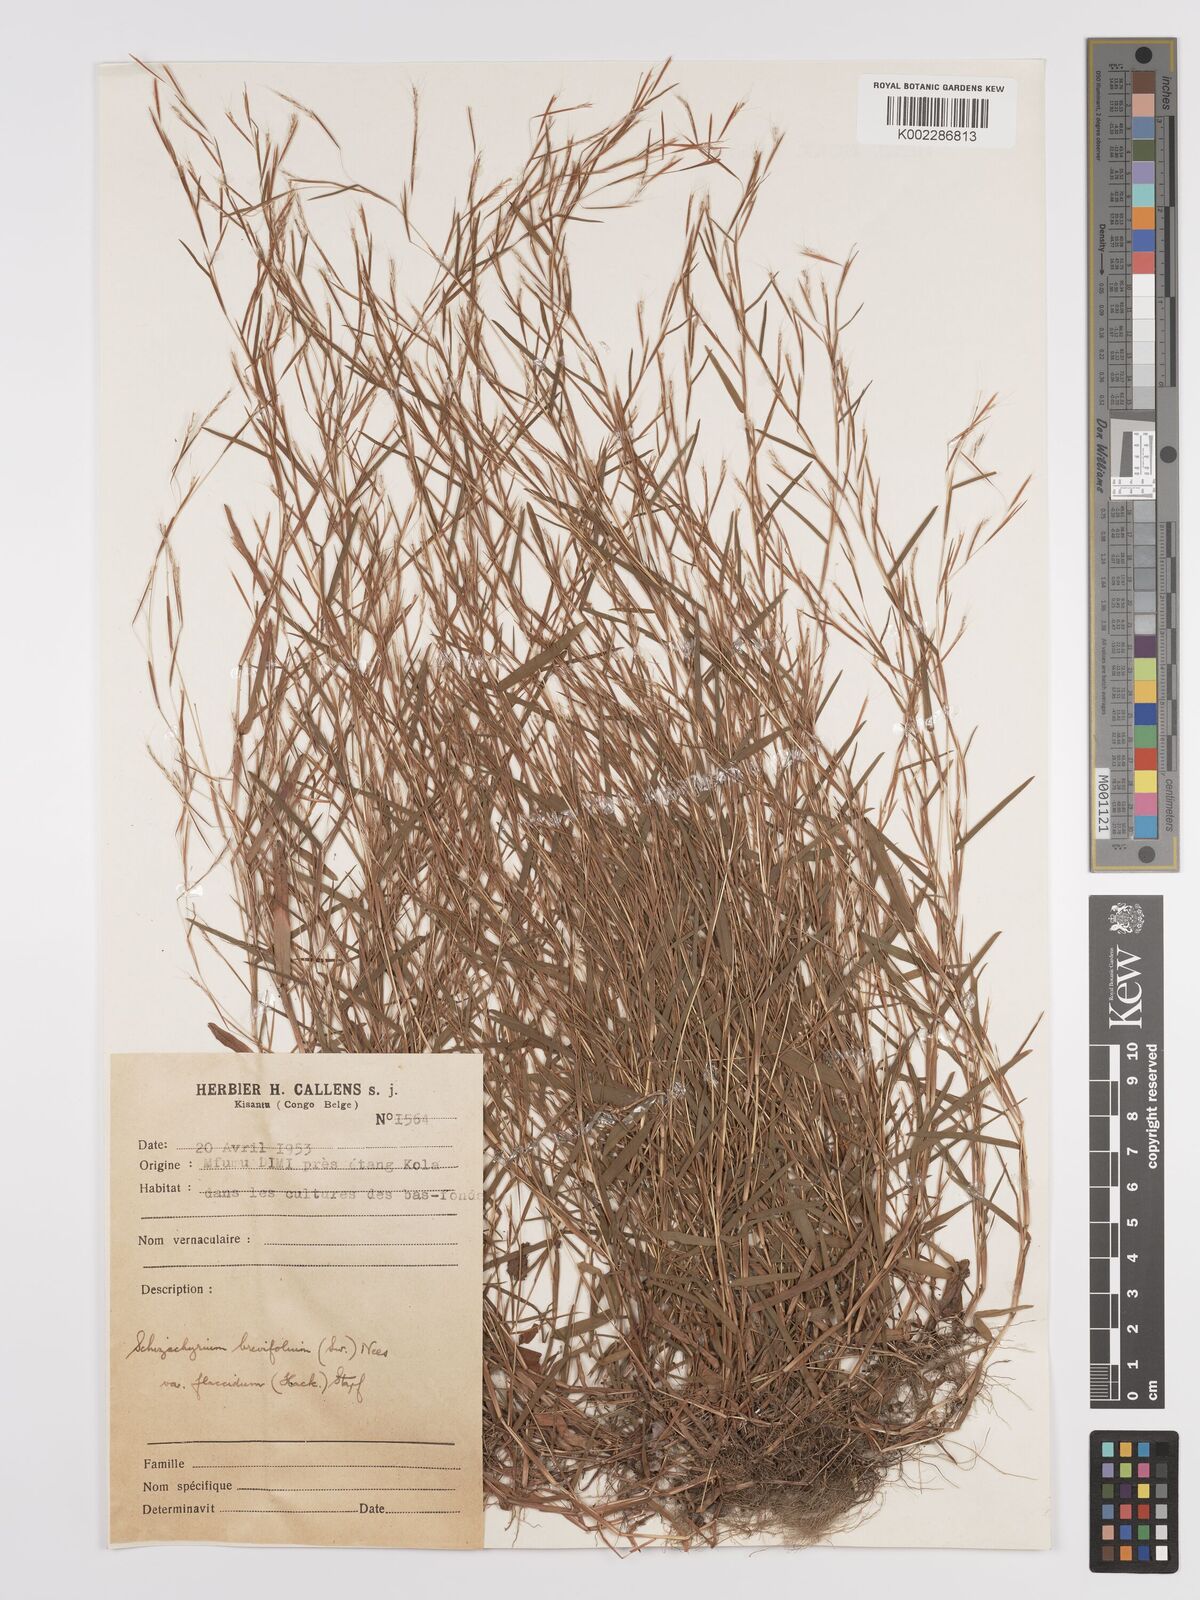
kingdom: Plantae
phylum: Tracheophyta
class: Liliopsida
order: Poales
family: Poaceae
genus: Schizachyrium
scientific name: Schizachyrium brevifolium
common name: Serillo dulce
